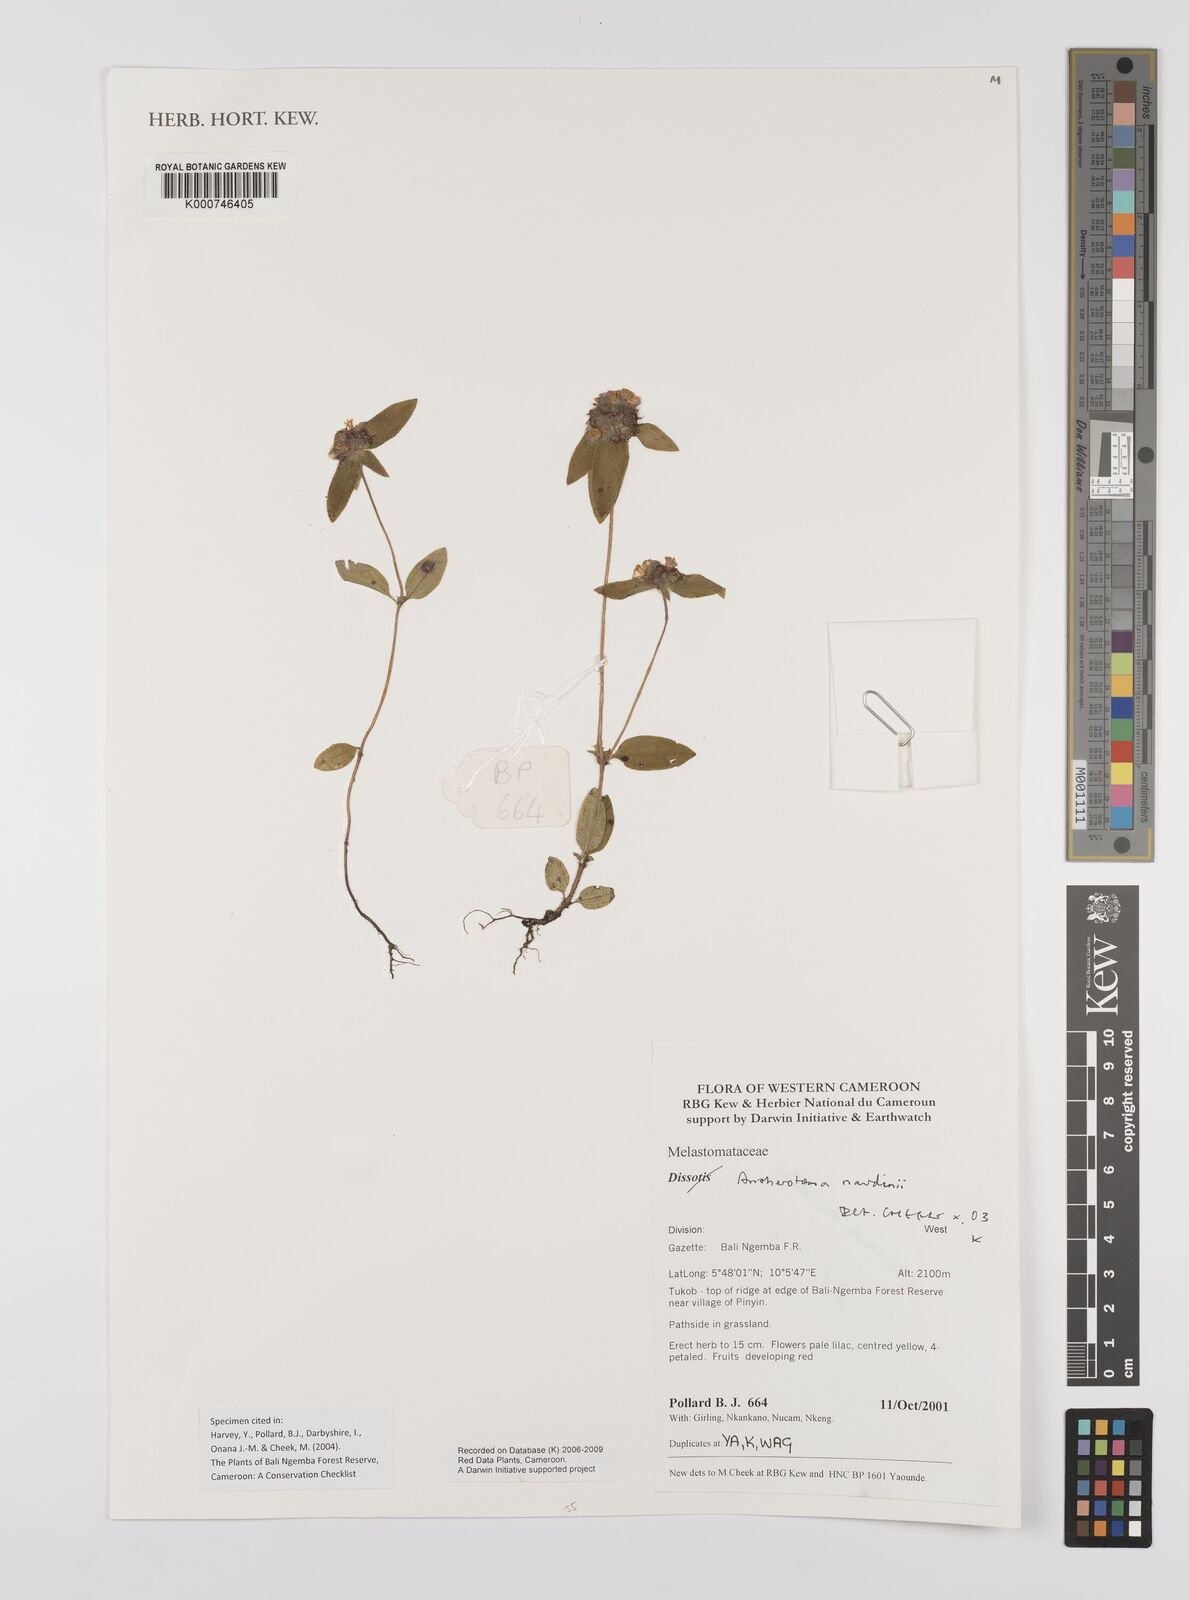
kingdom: Plantae
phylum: Tracheophyta
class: Magnoliopsida
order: Myrtales
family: Melastomataceae
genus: Antherotoma
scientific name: Antherotoma naudinii
